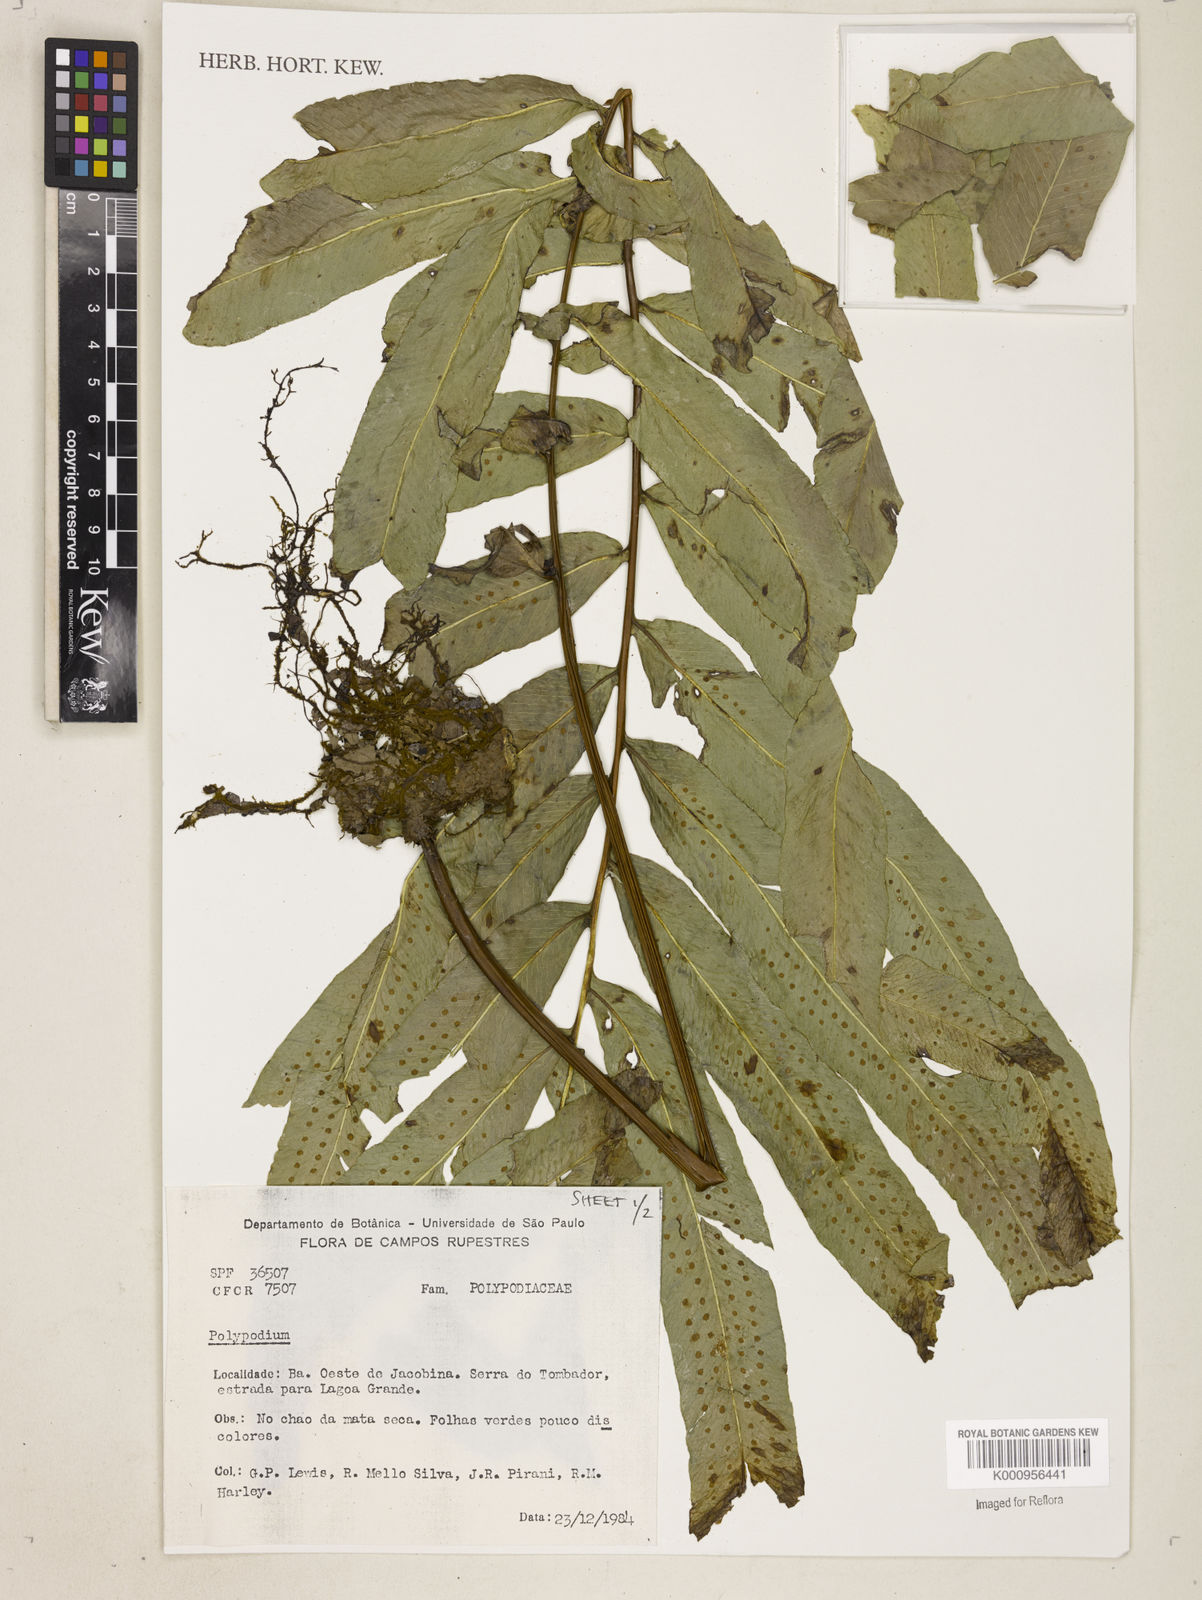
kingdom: Plantae
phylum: Tracheophyta
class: Polypodiopsida
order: Polypodiales
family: Polypodiaceae
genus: Polypodium
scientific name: Polypodium
